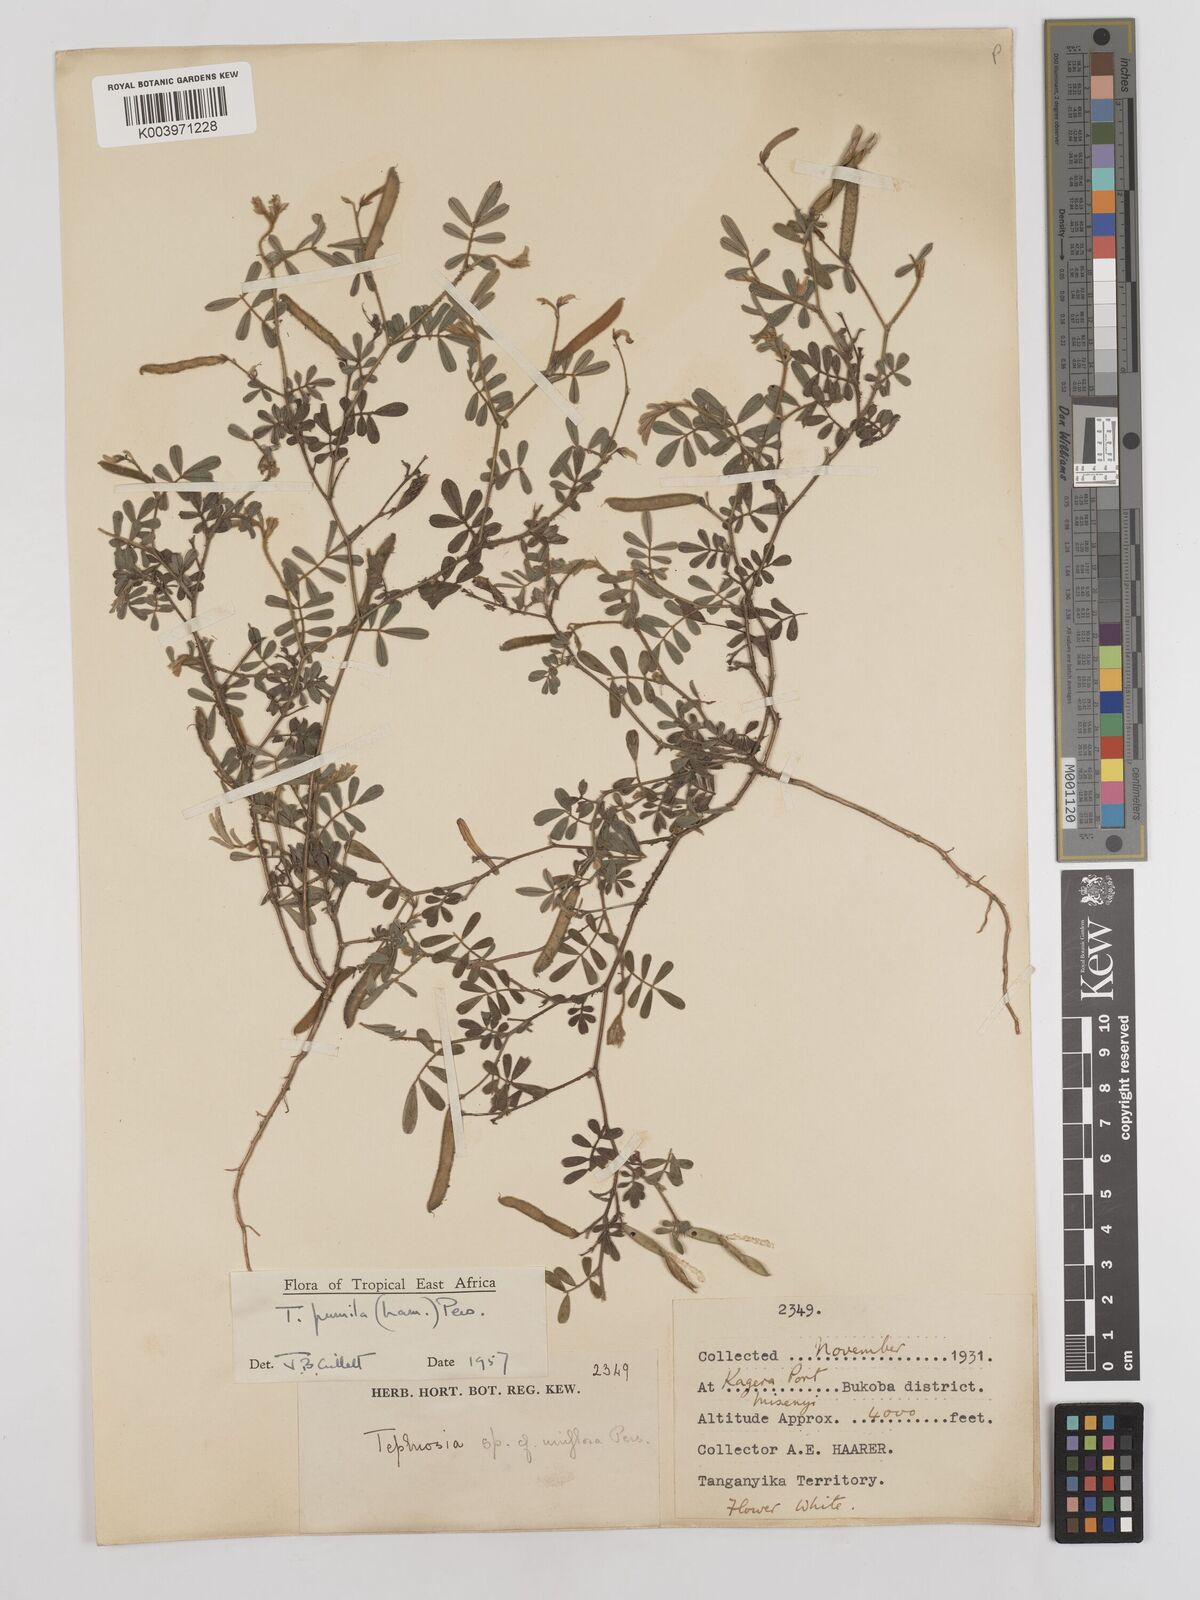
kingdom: Plantae
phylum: Tracheophyta
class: Magnoliopsida
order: Fabales
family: Fabaceae
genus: Tephrosia
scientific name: Tephrosia pumila
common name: Indigo sauvage
